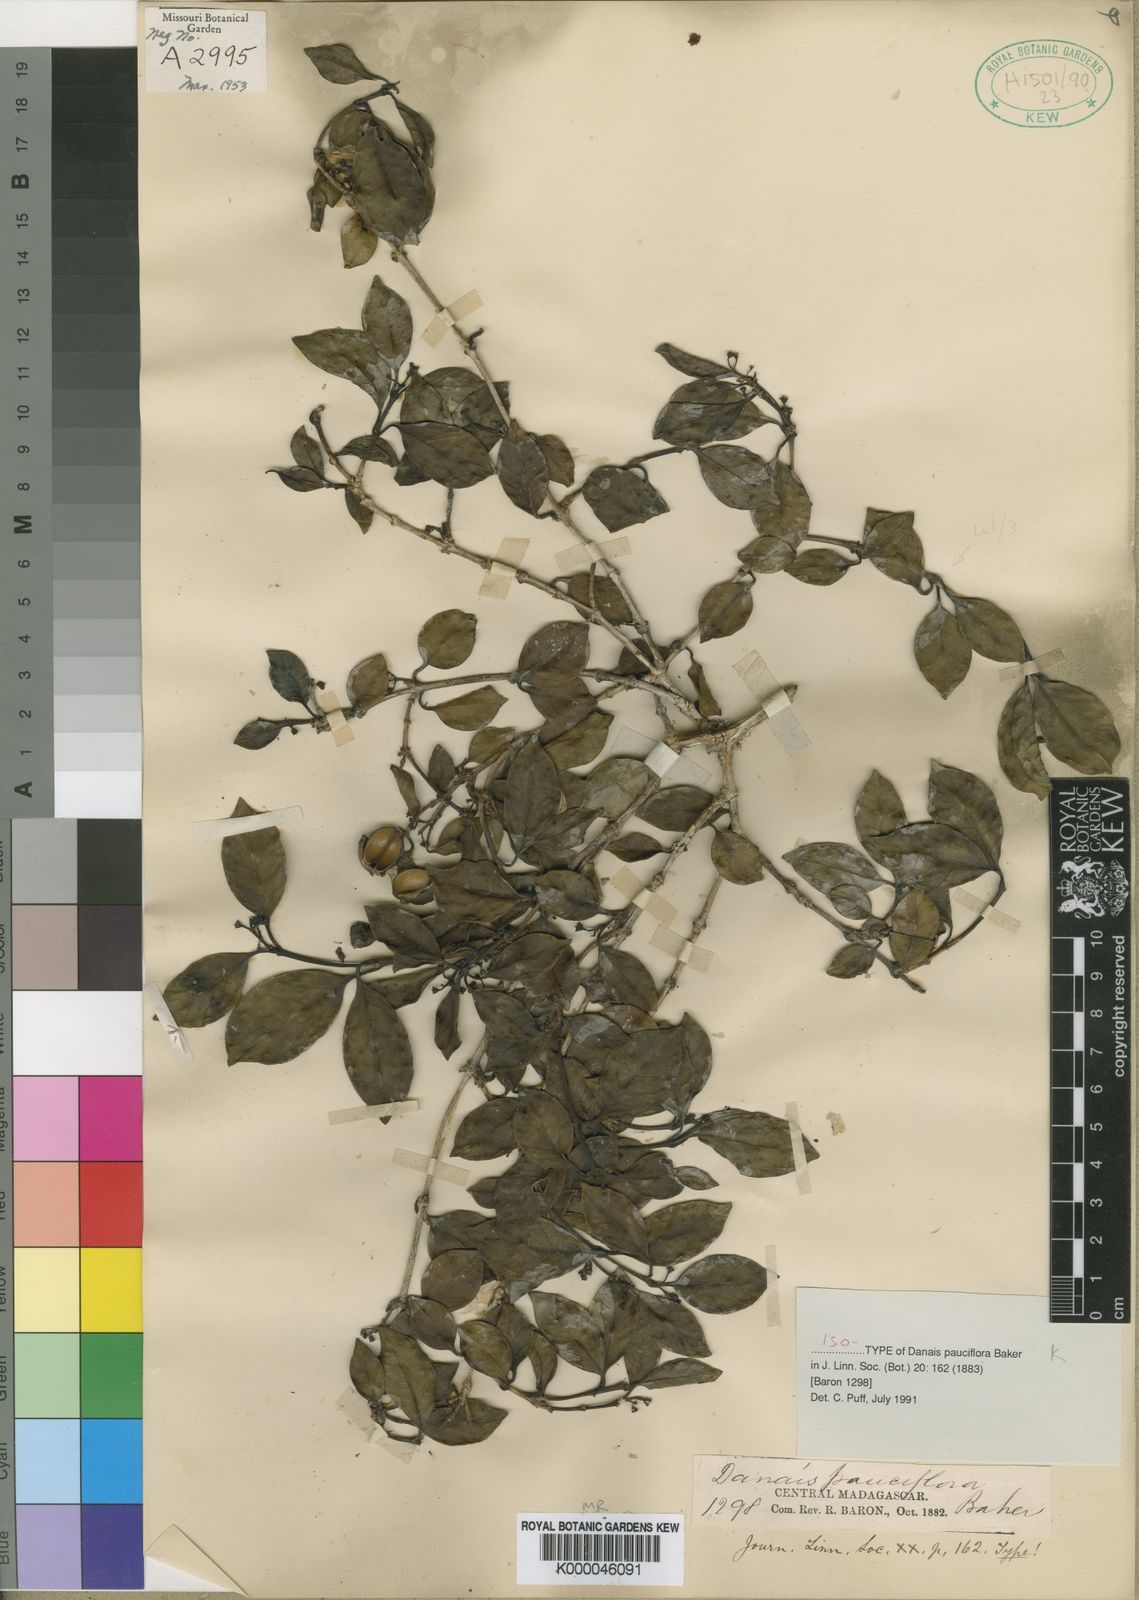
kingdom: Plantae
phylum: Tracheophyta
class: Magnoliopsida
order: Gentianales
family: Rubiaceae
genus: Danais
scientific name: Danais pauciflora
